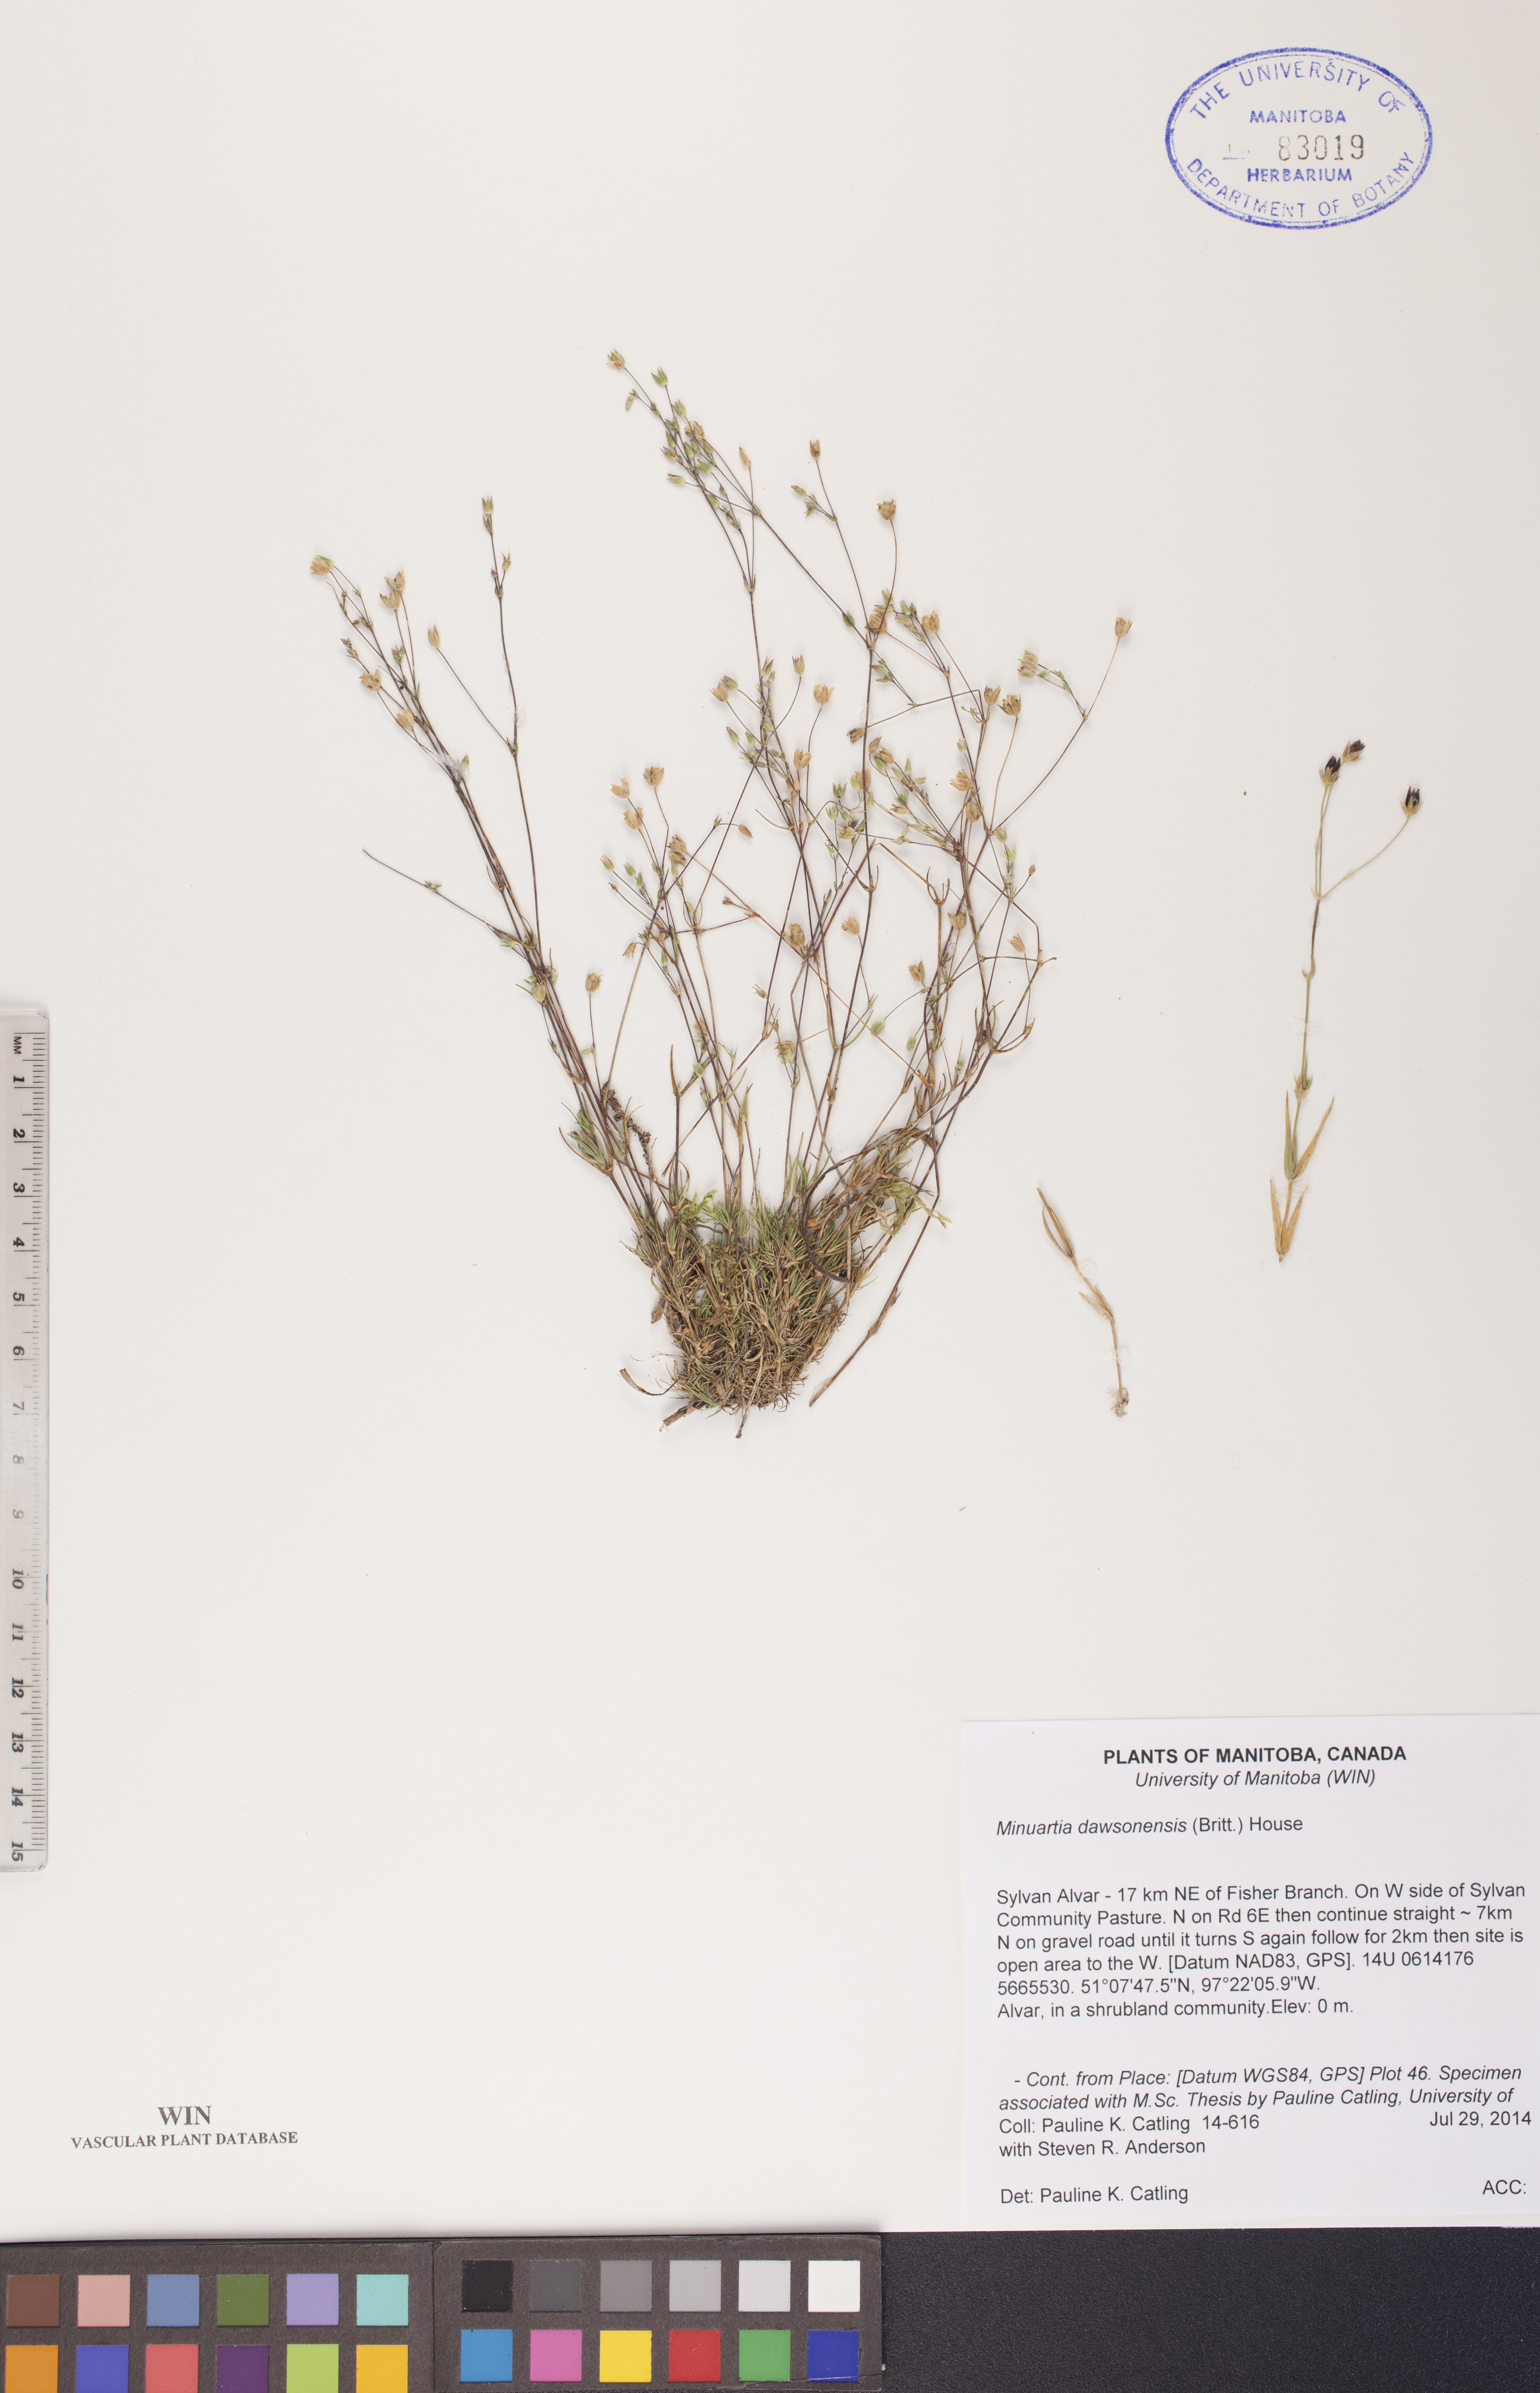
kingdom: Plantae
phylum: Tracheophyta
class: Magnoliopsida
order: Caryophyllales
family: Caryophyllaceae
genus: Sabulina
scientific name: Sabulina dawsonensis
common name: Dawson's cockle
